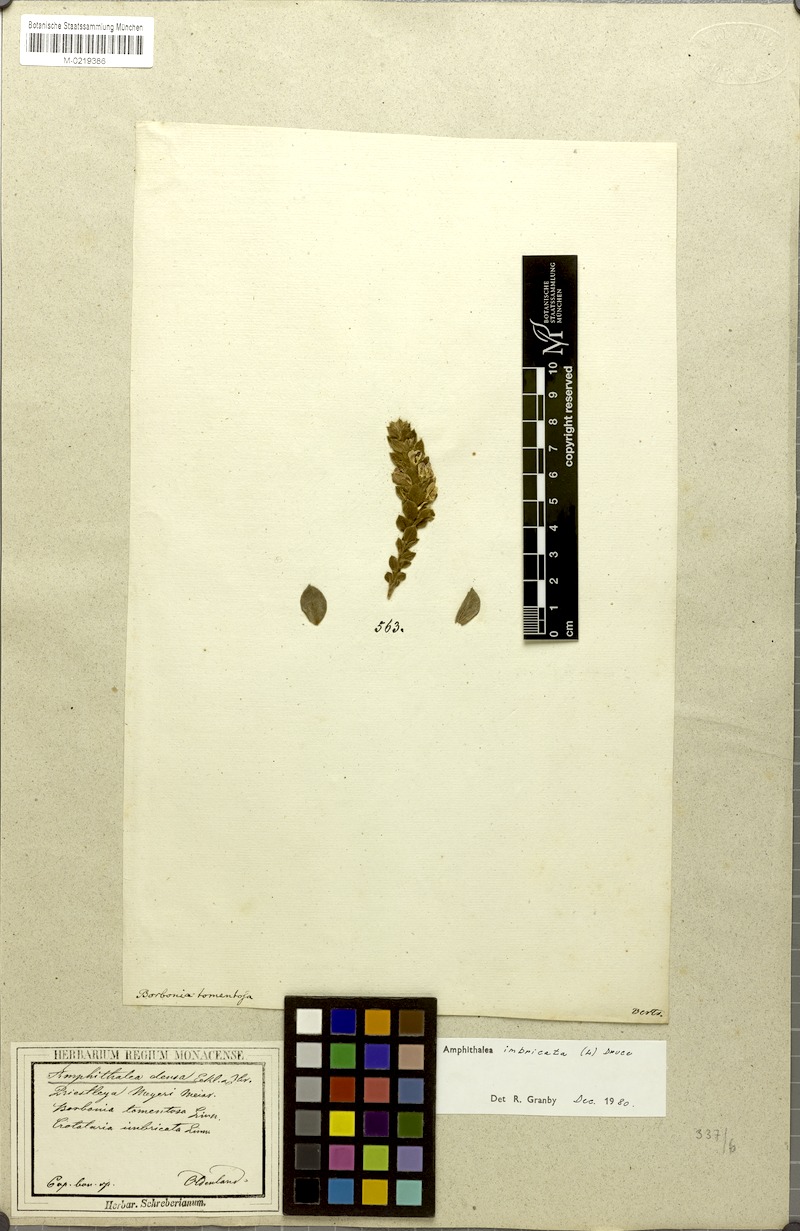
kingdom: Plantae
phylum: Tracheophyta
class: Magnoliopsida
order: Fabales
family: Fabaceae
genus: Amphithalea
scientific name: Amphithalea imbricata
